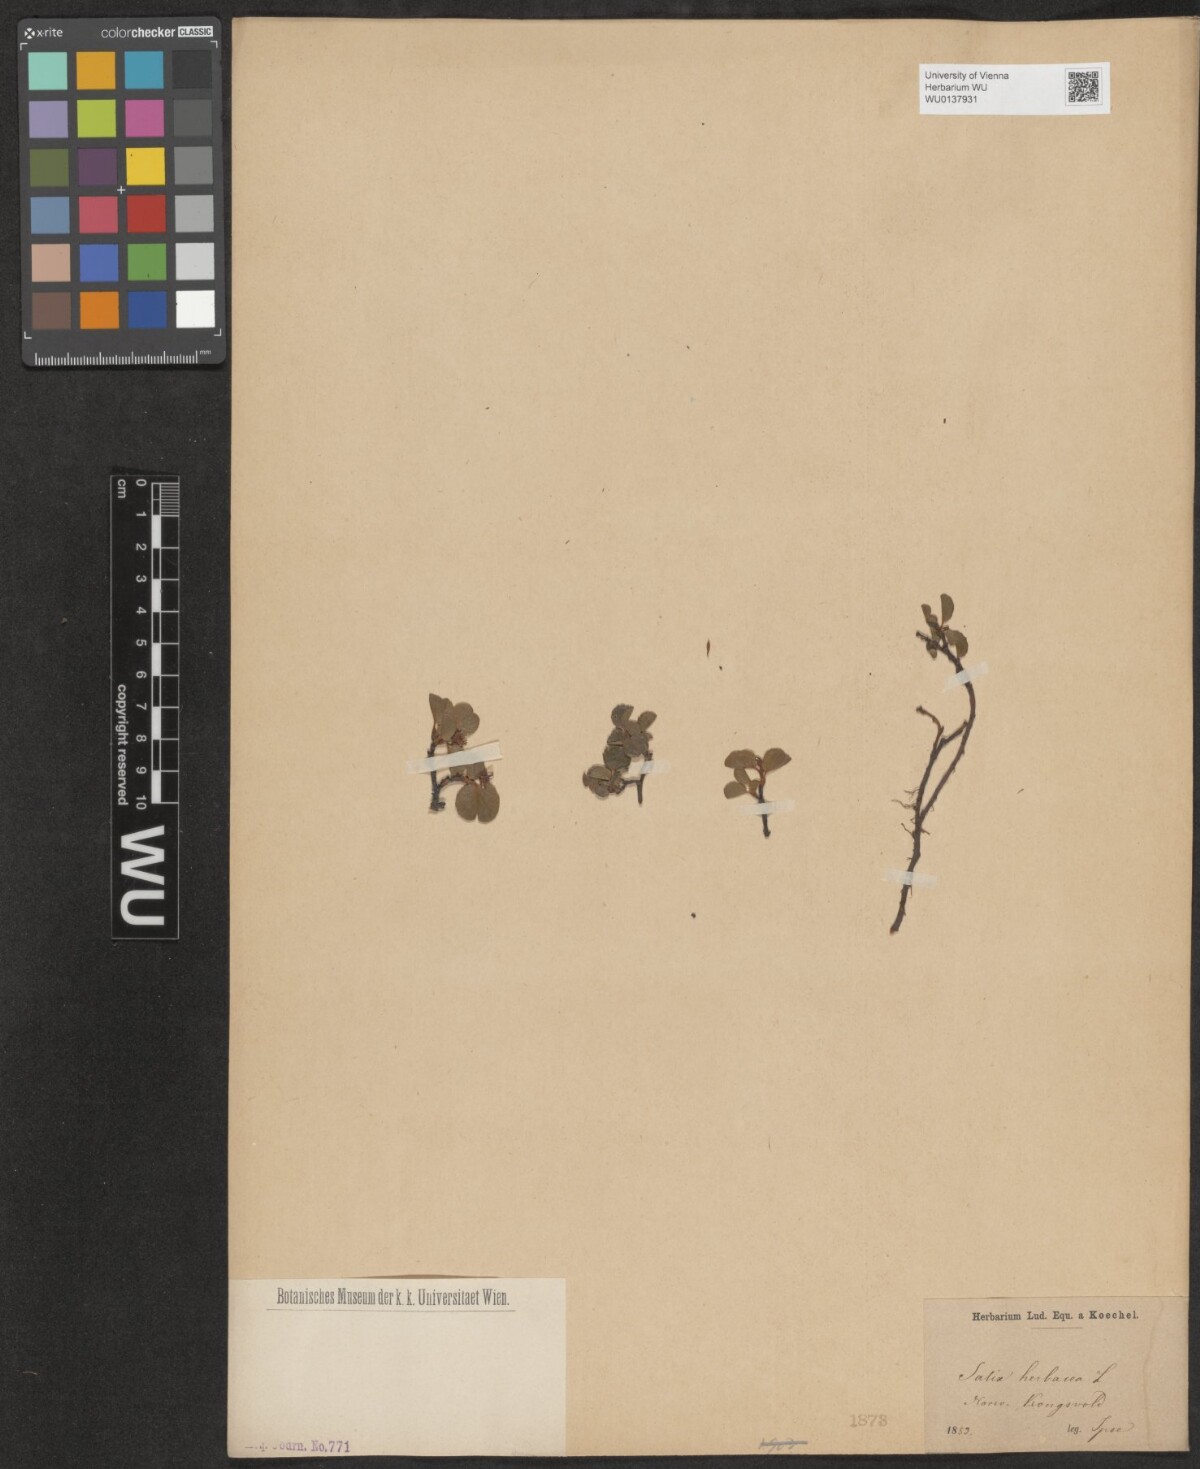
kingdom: Plantae
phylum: Tracheophyta
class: Magnoliopsida
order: Malpighiales
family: Salicaceae
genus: Salix
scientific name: Salix herbacea
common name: Dwarf willow
